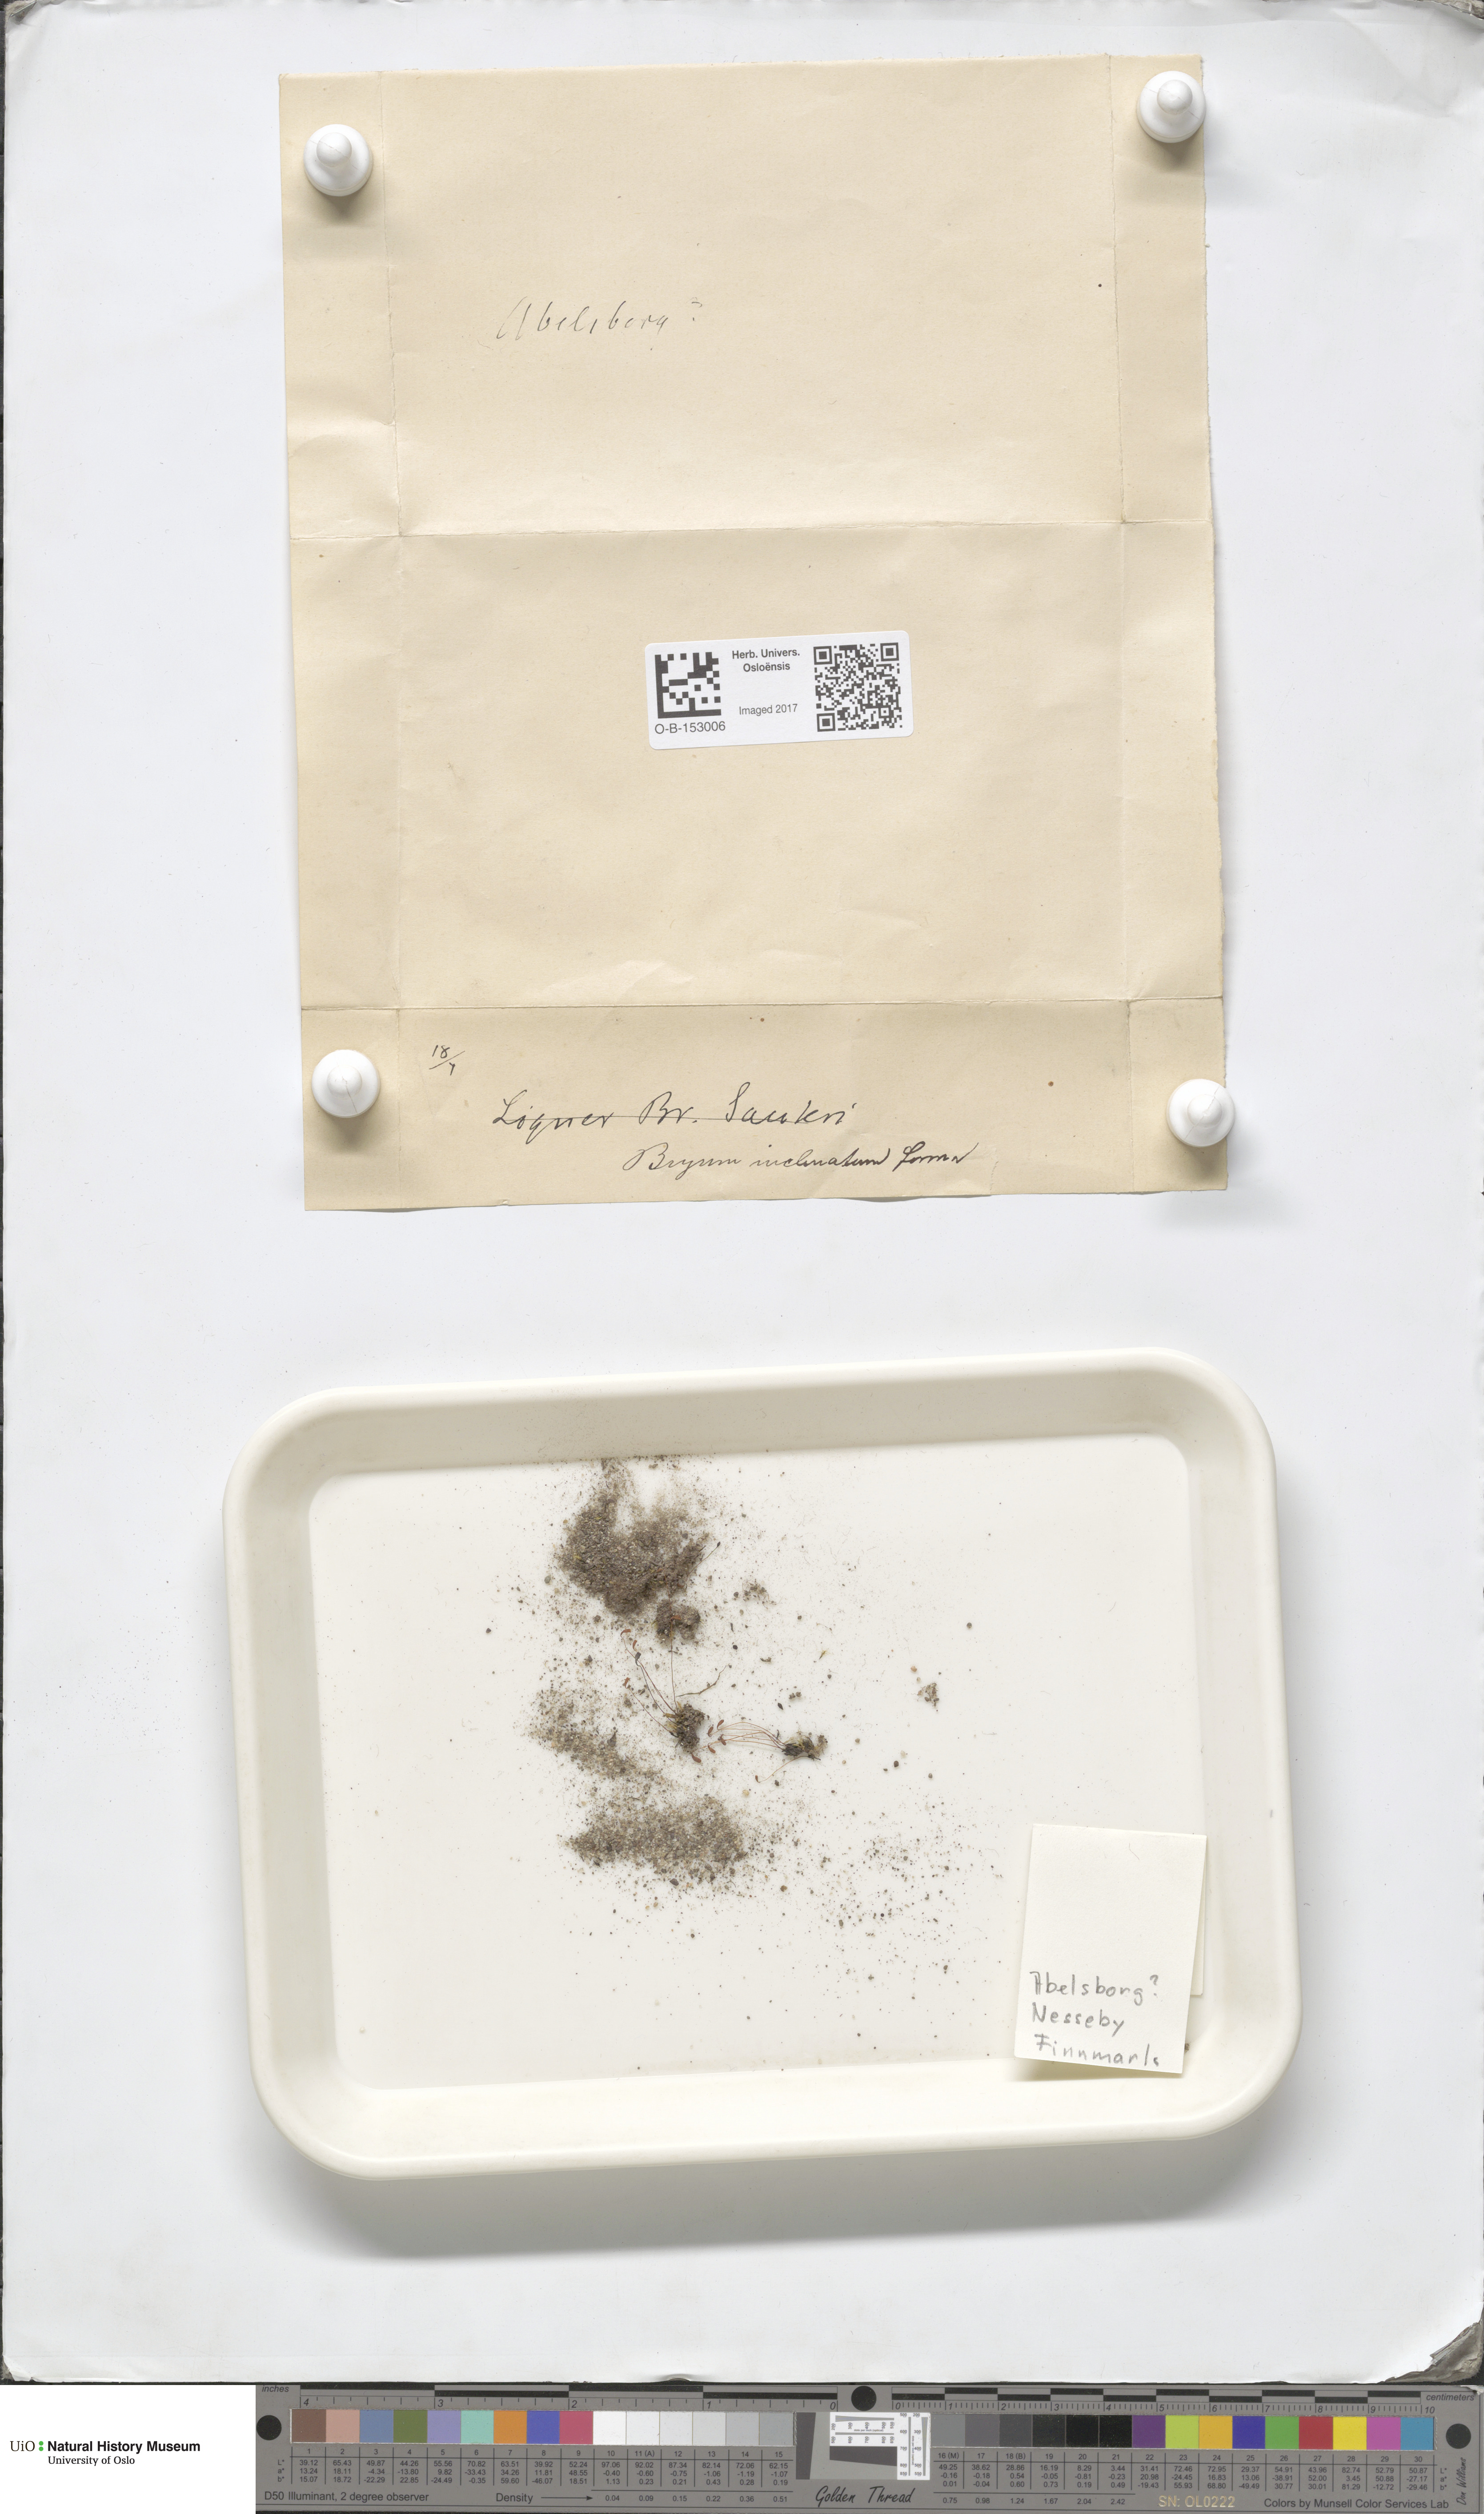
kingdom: Plantae
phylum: Bryophyta
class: Bryopsida
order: Bryales
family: Bryaceae
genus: Ptychostomum
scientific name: Ptychostomum inclinatum
